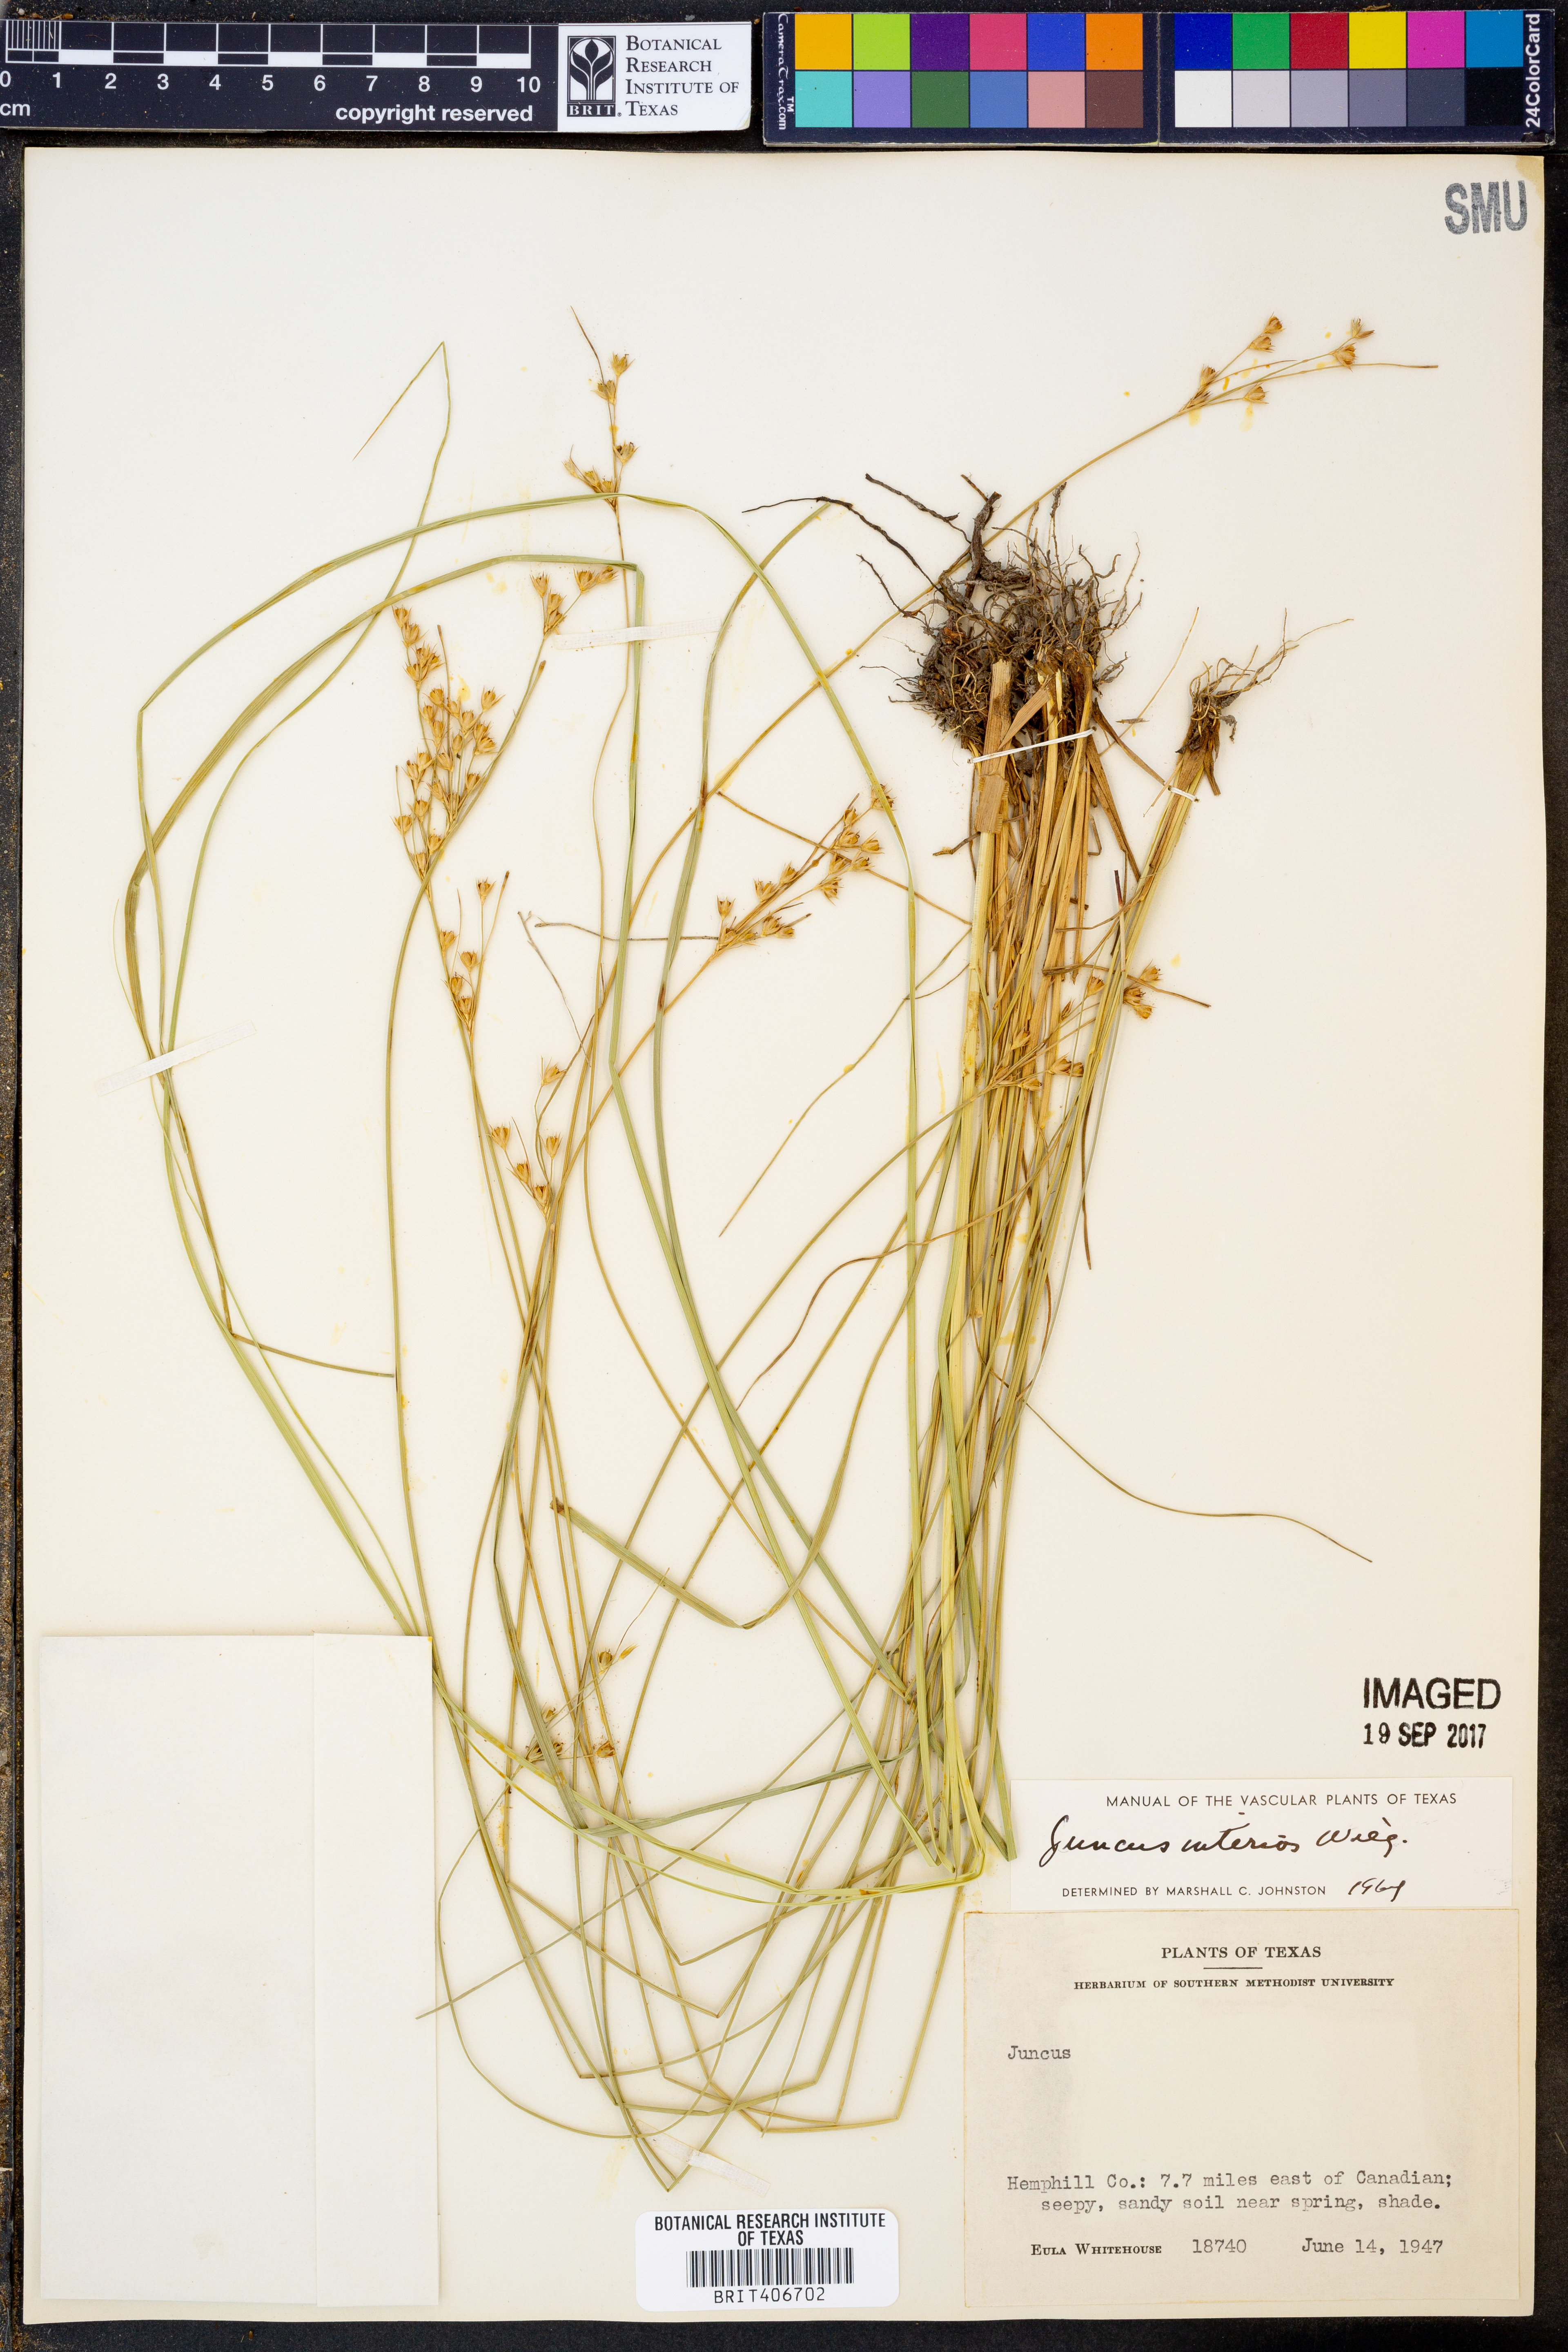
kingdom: Plantae
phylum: Tracheophyta
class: Liliopsida
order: Poales
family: Juncaceae
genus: Juncus
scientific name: Juncus interior
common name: Interior rush
